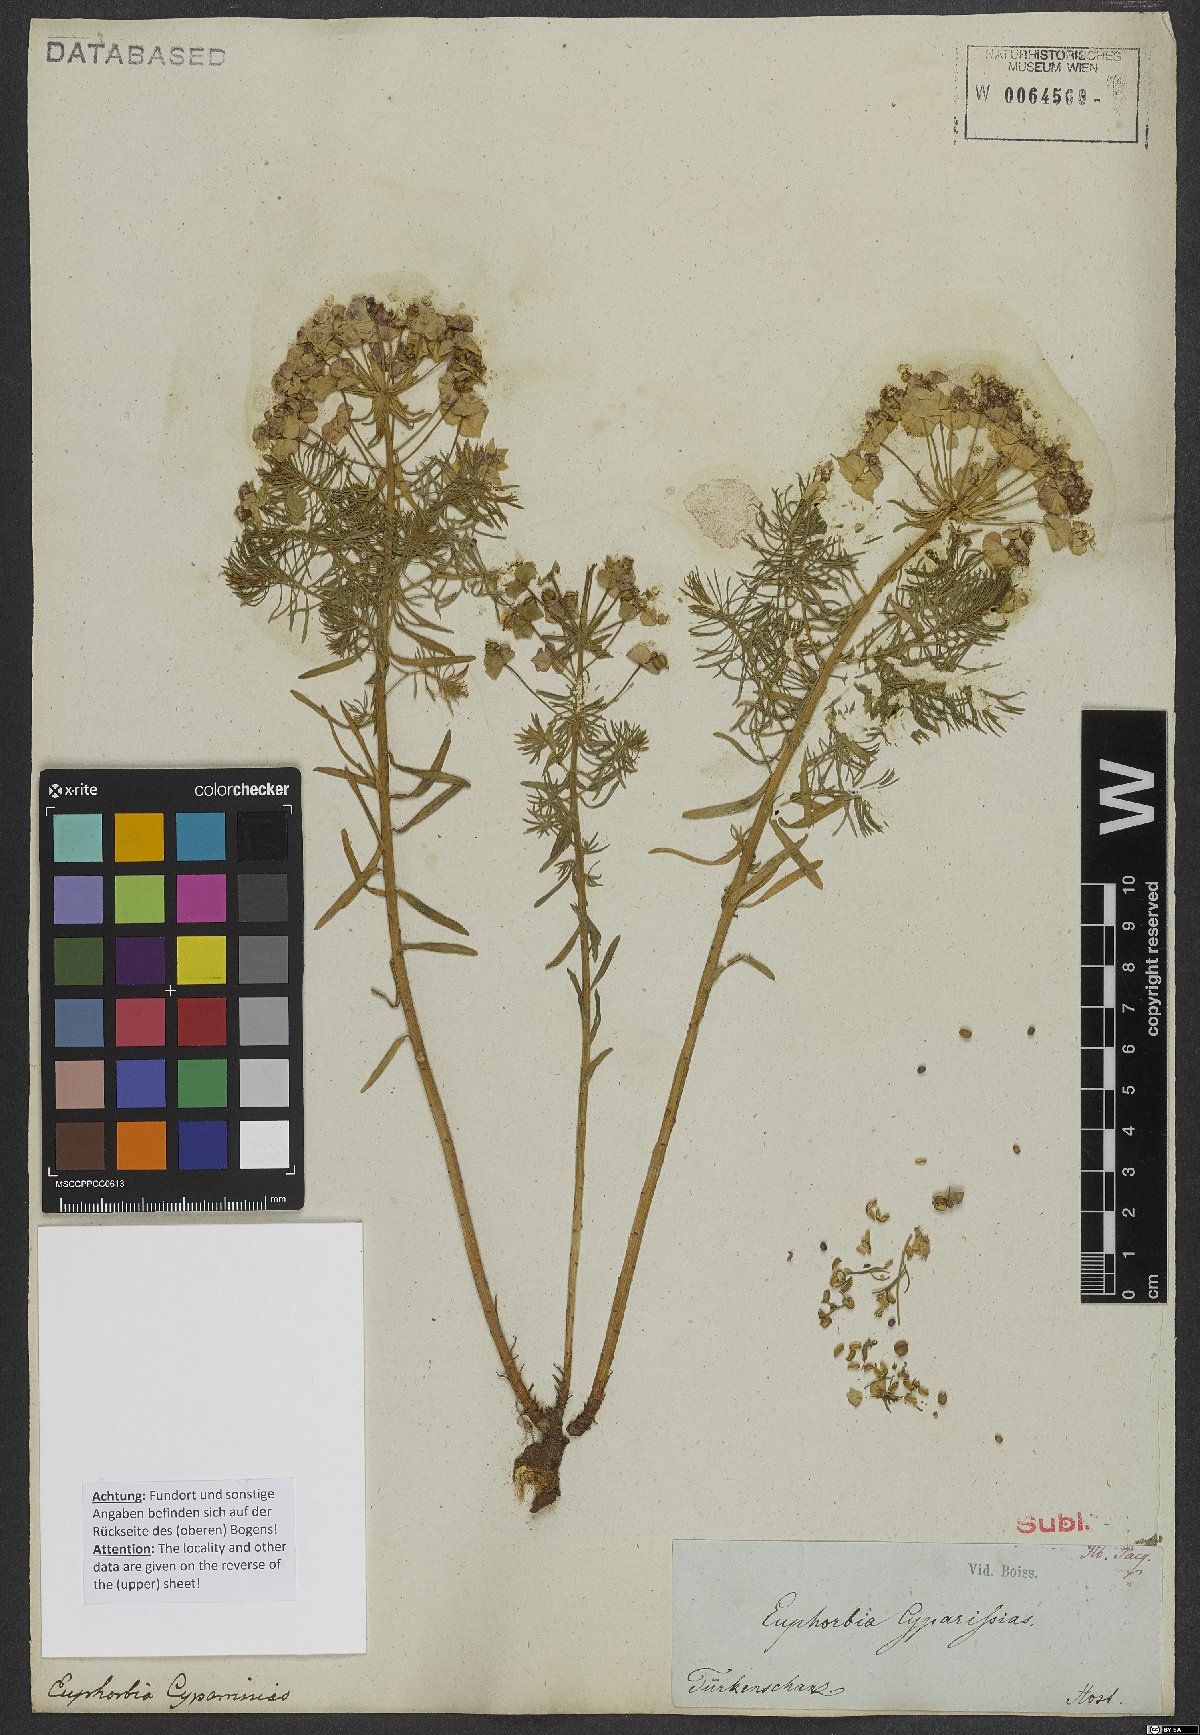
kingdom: Plantae
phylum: Tracheophyta
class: Magnoliopsida
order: Malpighiales
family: Euphorbiaceae
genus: Euphorbia
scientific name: Euphorbia cyparissias
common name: Cypress spurge
